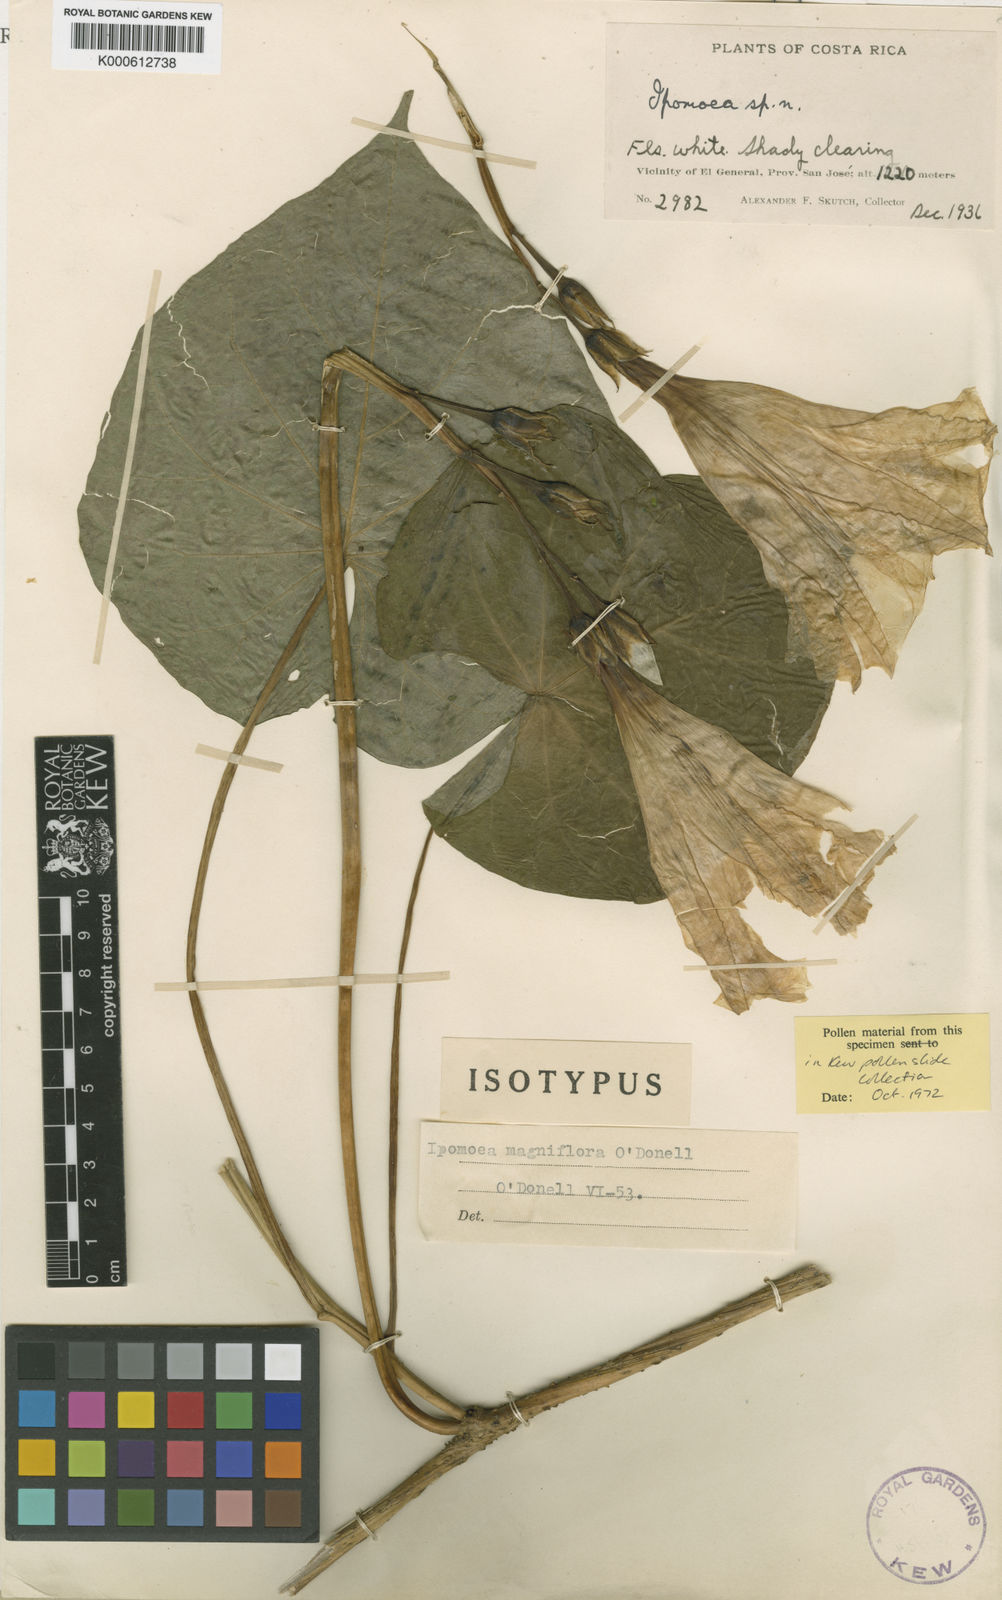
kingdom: Plantae
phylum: Tracheophyta
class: Magnoliopsida
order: Solanales
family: Convolvulaceae
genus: Ipomoea
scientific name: Ipomoea magniflora
